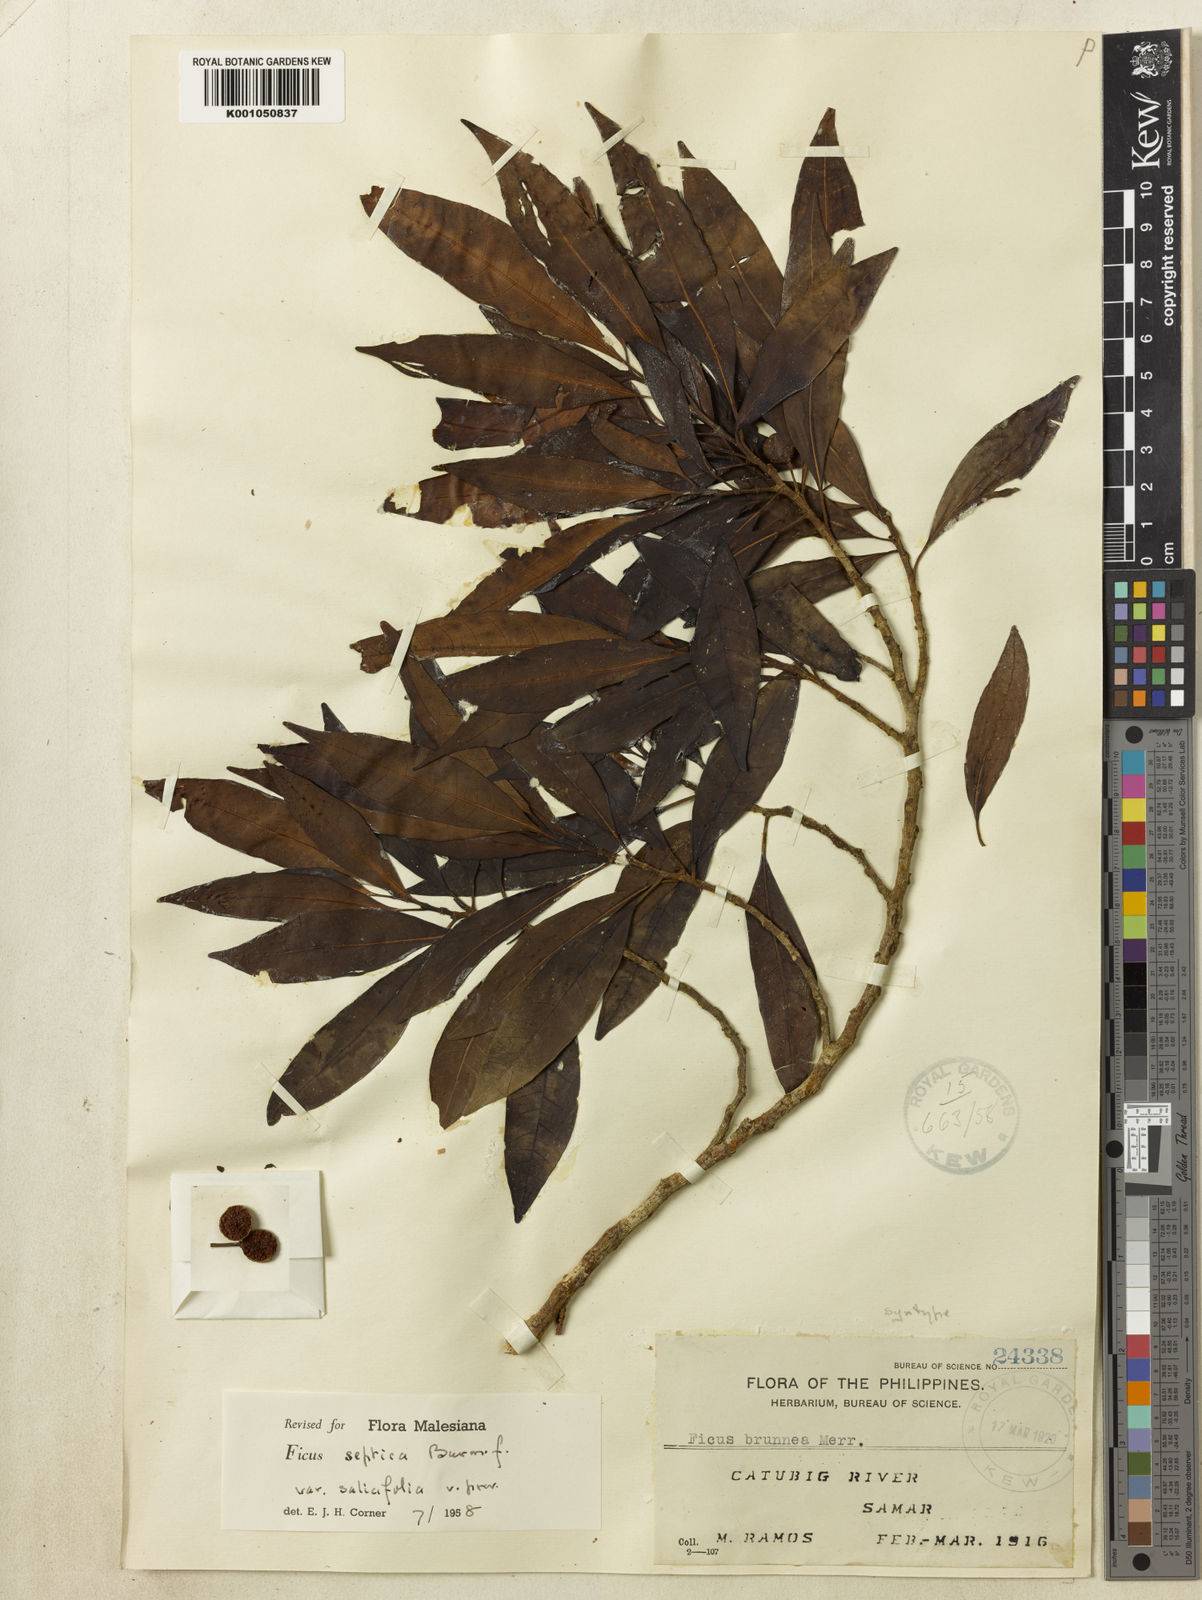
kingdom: Plantae
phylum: Tracheophyta
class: Magnoliopsida
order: Rosales
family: Moraceae
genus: Ficus
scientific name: Ficus septica
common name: Septic fig
